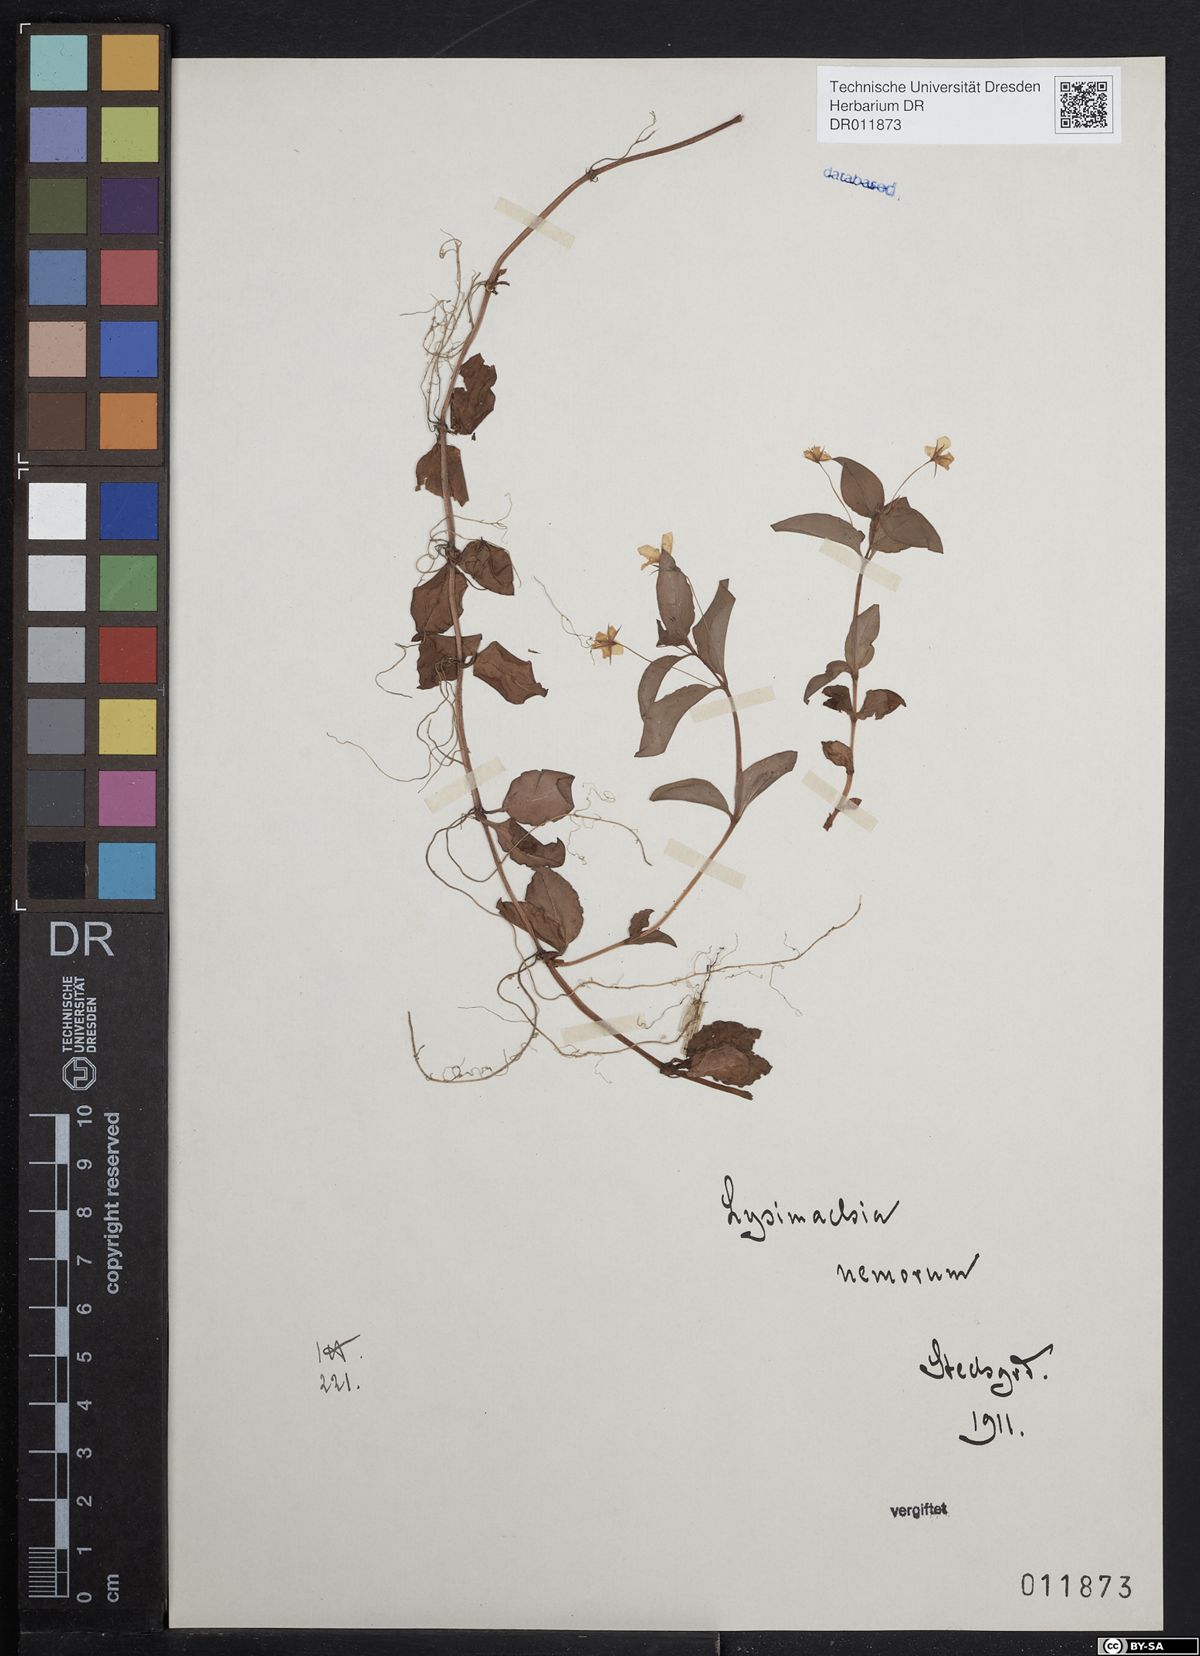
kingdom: Plantae
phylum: Tracheophyta
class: Magnoliopsida
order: Ericales
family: Primulaceae
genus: Lysimachia
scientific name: Lysimachia nemorum
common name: Yellow pimpernel
